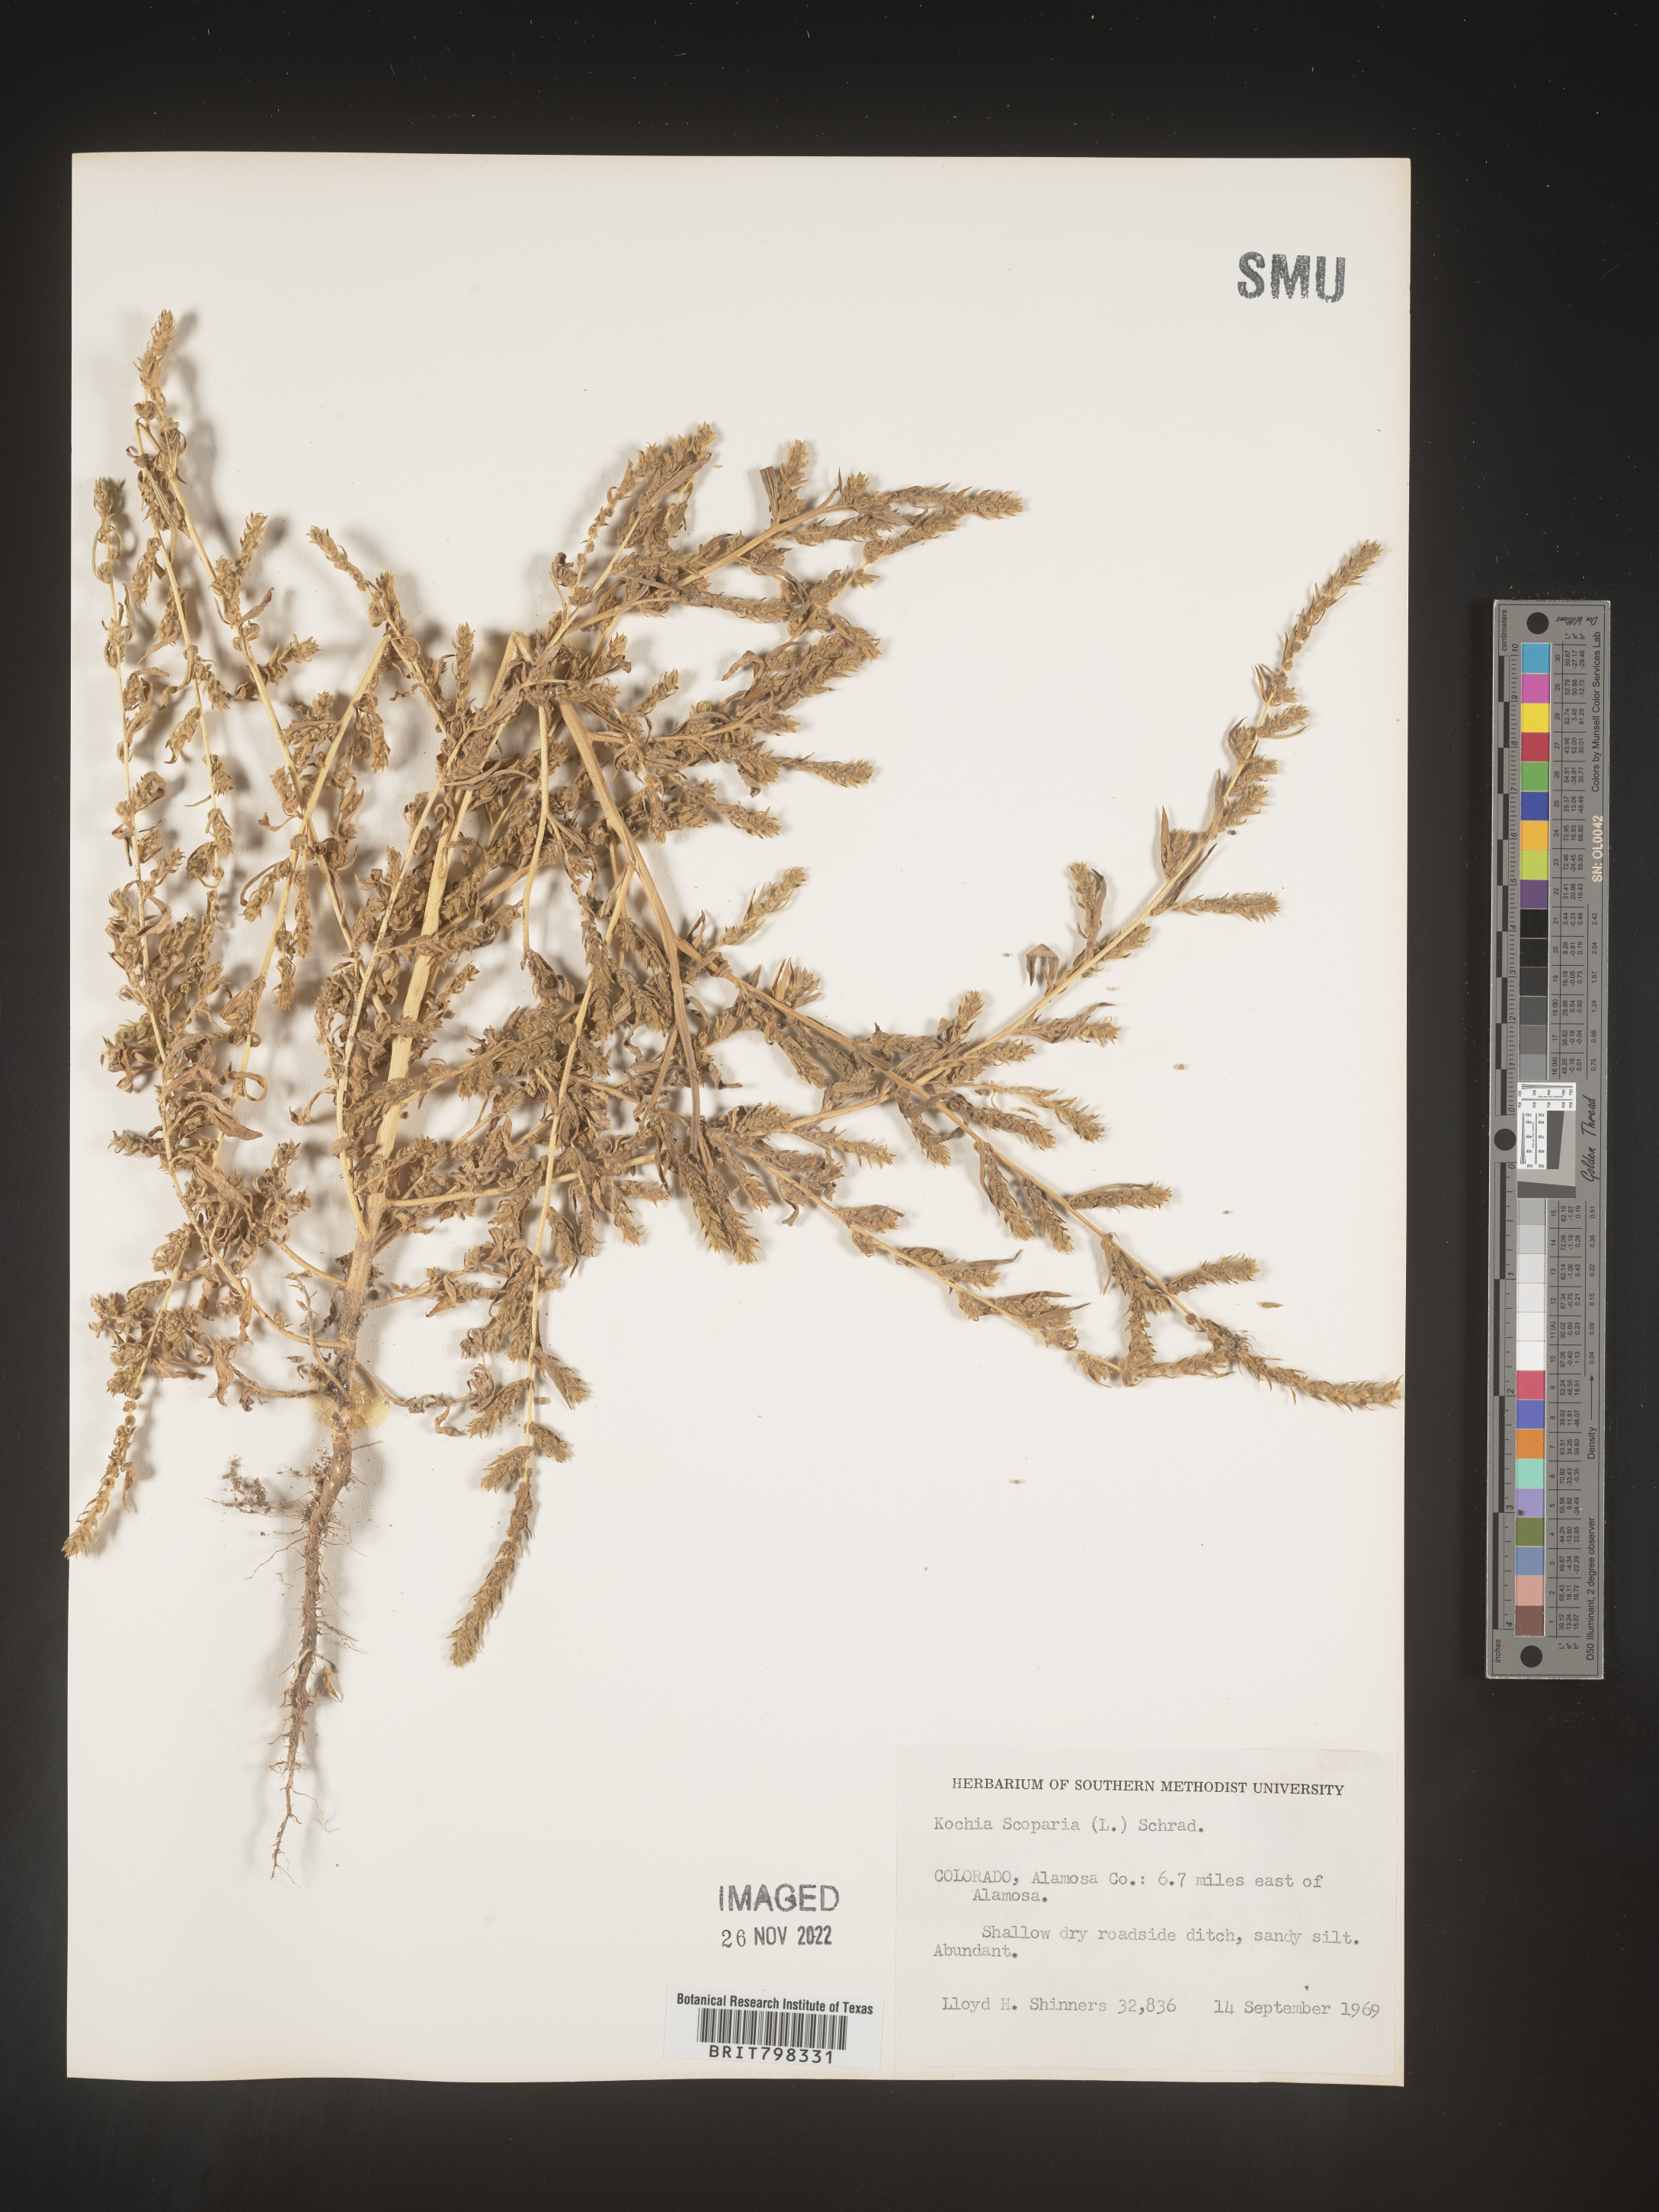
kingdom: Plantae
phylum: Tracheophyta
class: Magnoliopsida
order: Caryophyllales
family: Amaranthaceae
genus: Bassia
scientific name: Bassia
